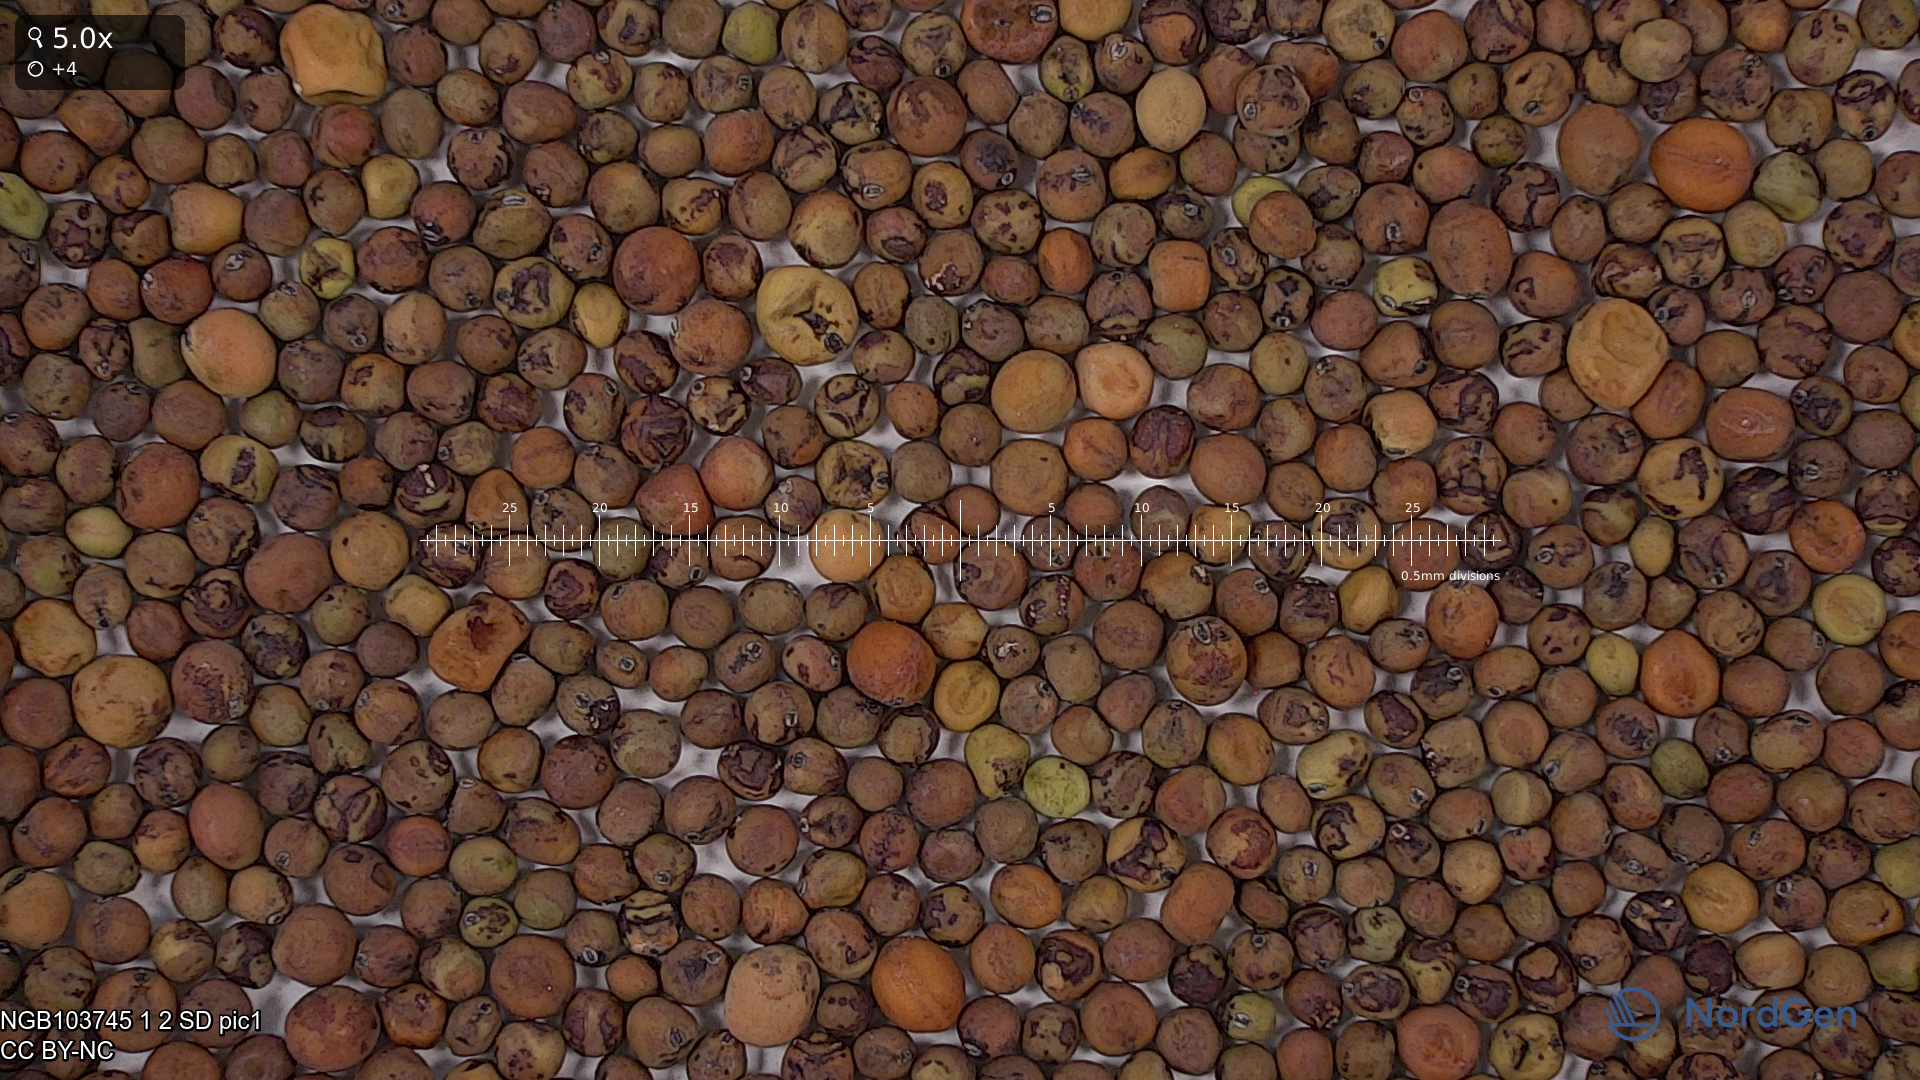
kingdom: Plantae
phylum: Tracheophyta
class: Magnoliopsida
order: Fabales
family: Fabaceae
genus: Lathyrus
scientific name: Lathyrus oleraceus
